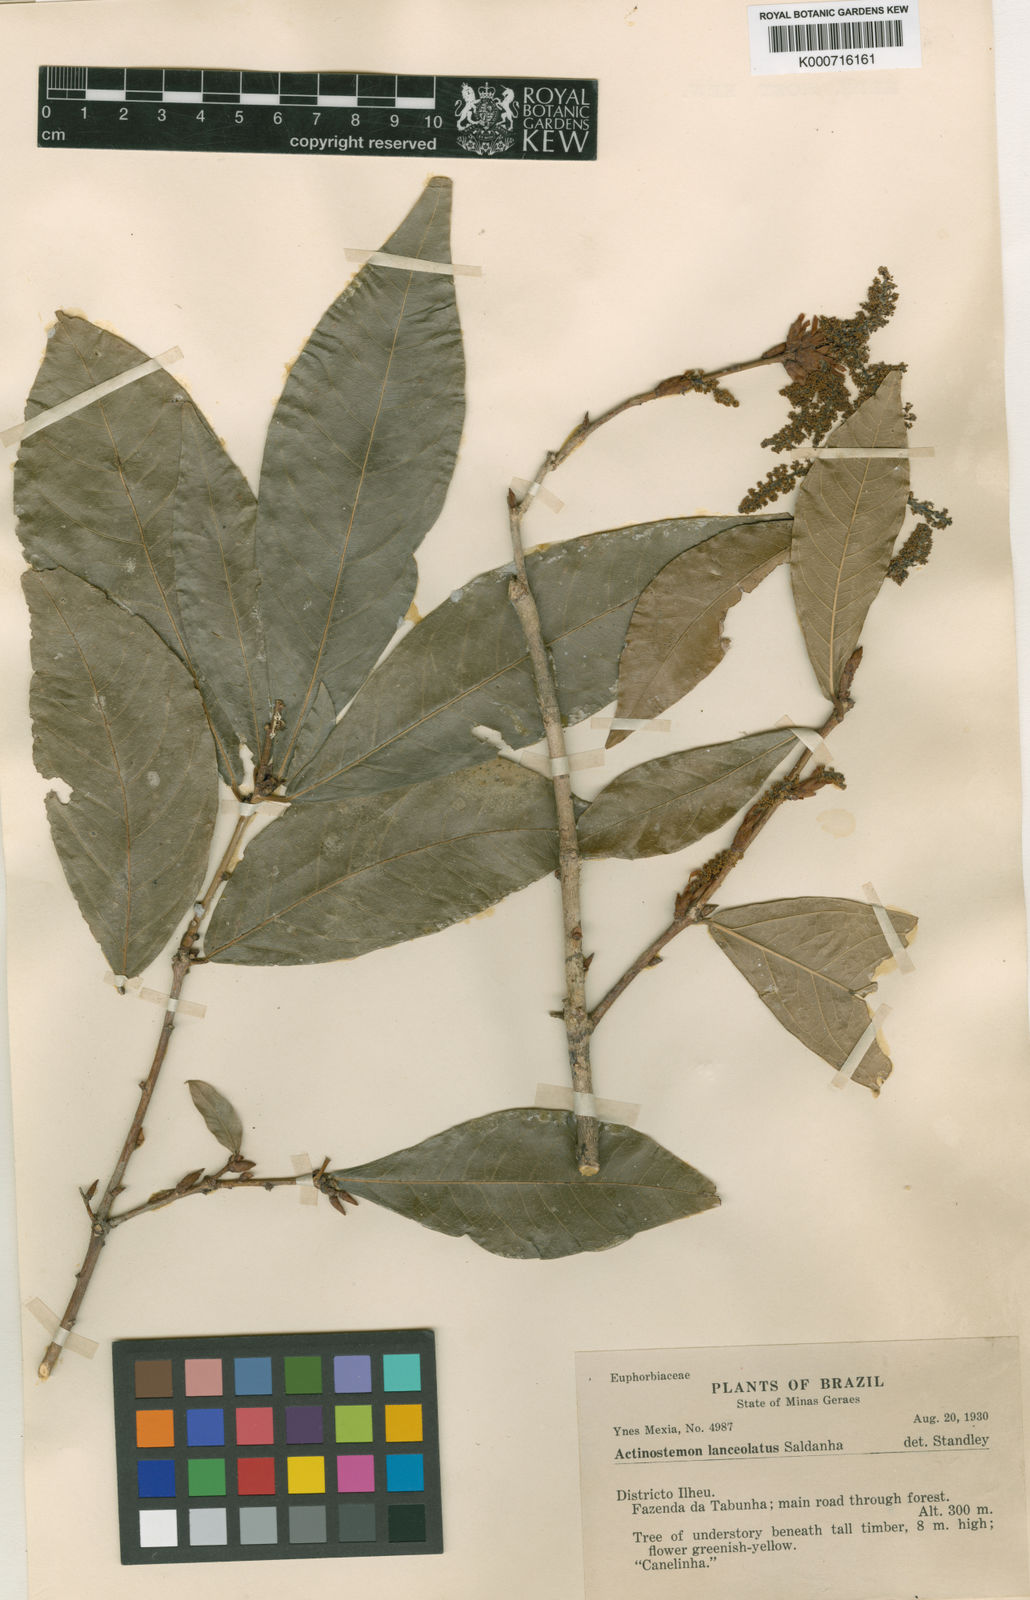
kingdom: Plantae
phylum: Tracheophyta
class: Magnoliopsida
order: Malpighiales
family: Euphorbiaceae
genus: Actinostemon
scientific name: Actinostemon
